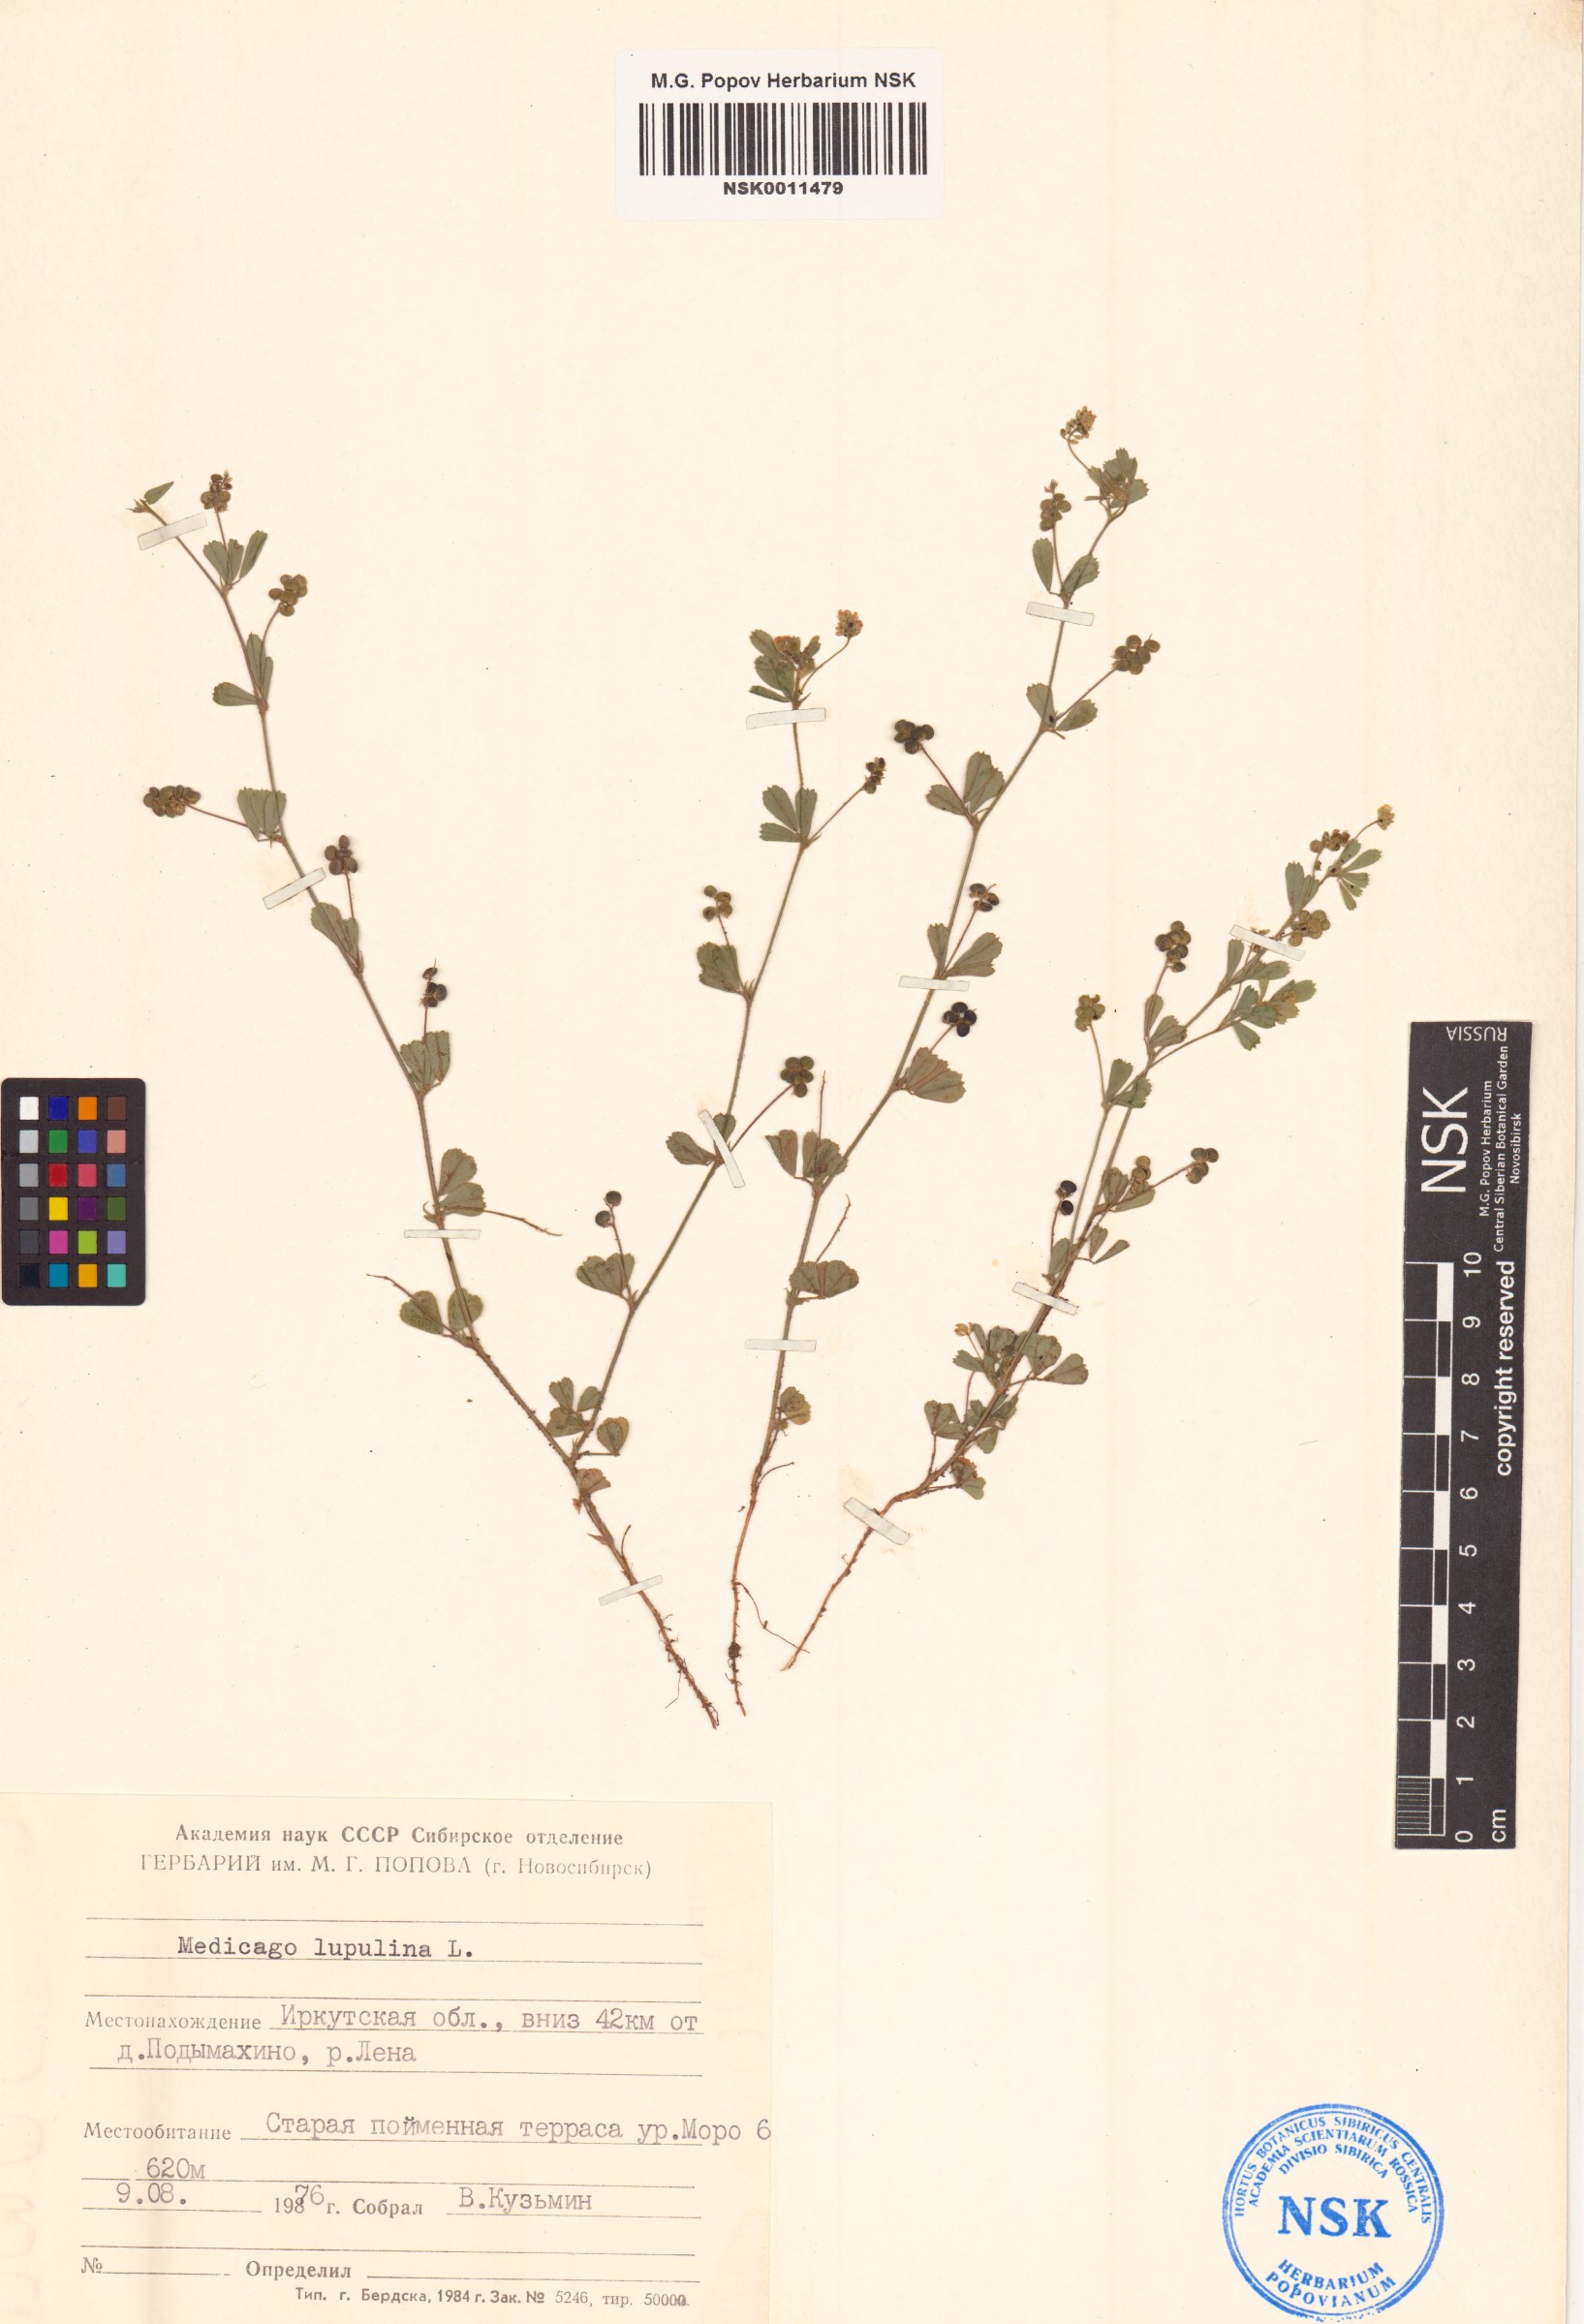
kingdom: Plantae
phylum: Tracheophyta
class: Magnoliopsida
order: Fabales
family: Fabaceae
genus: Medicago
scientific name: Medicago lupulina
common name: Black medick
